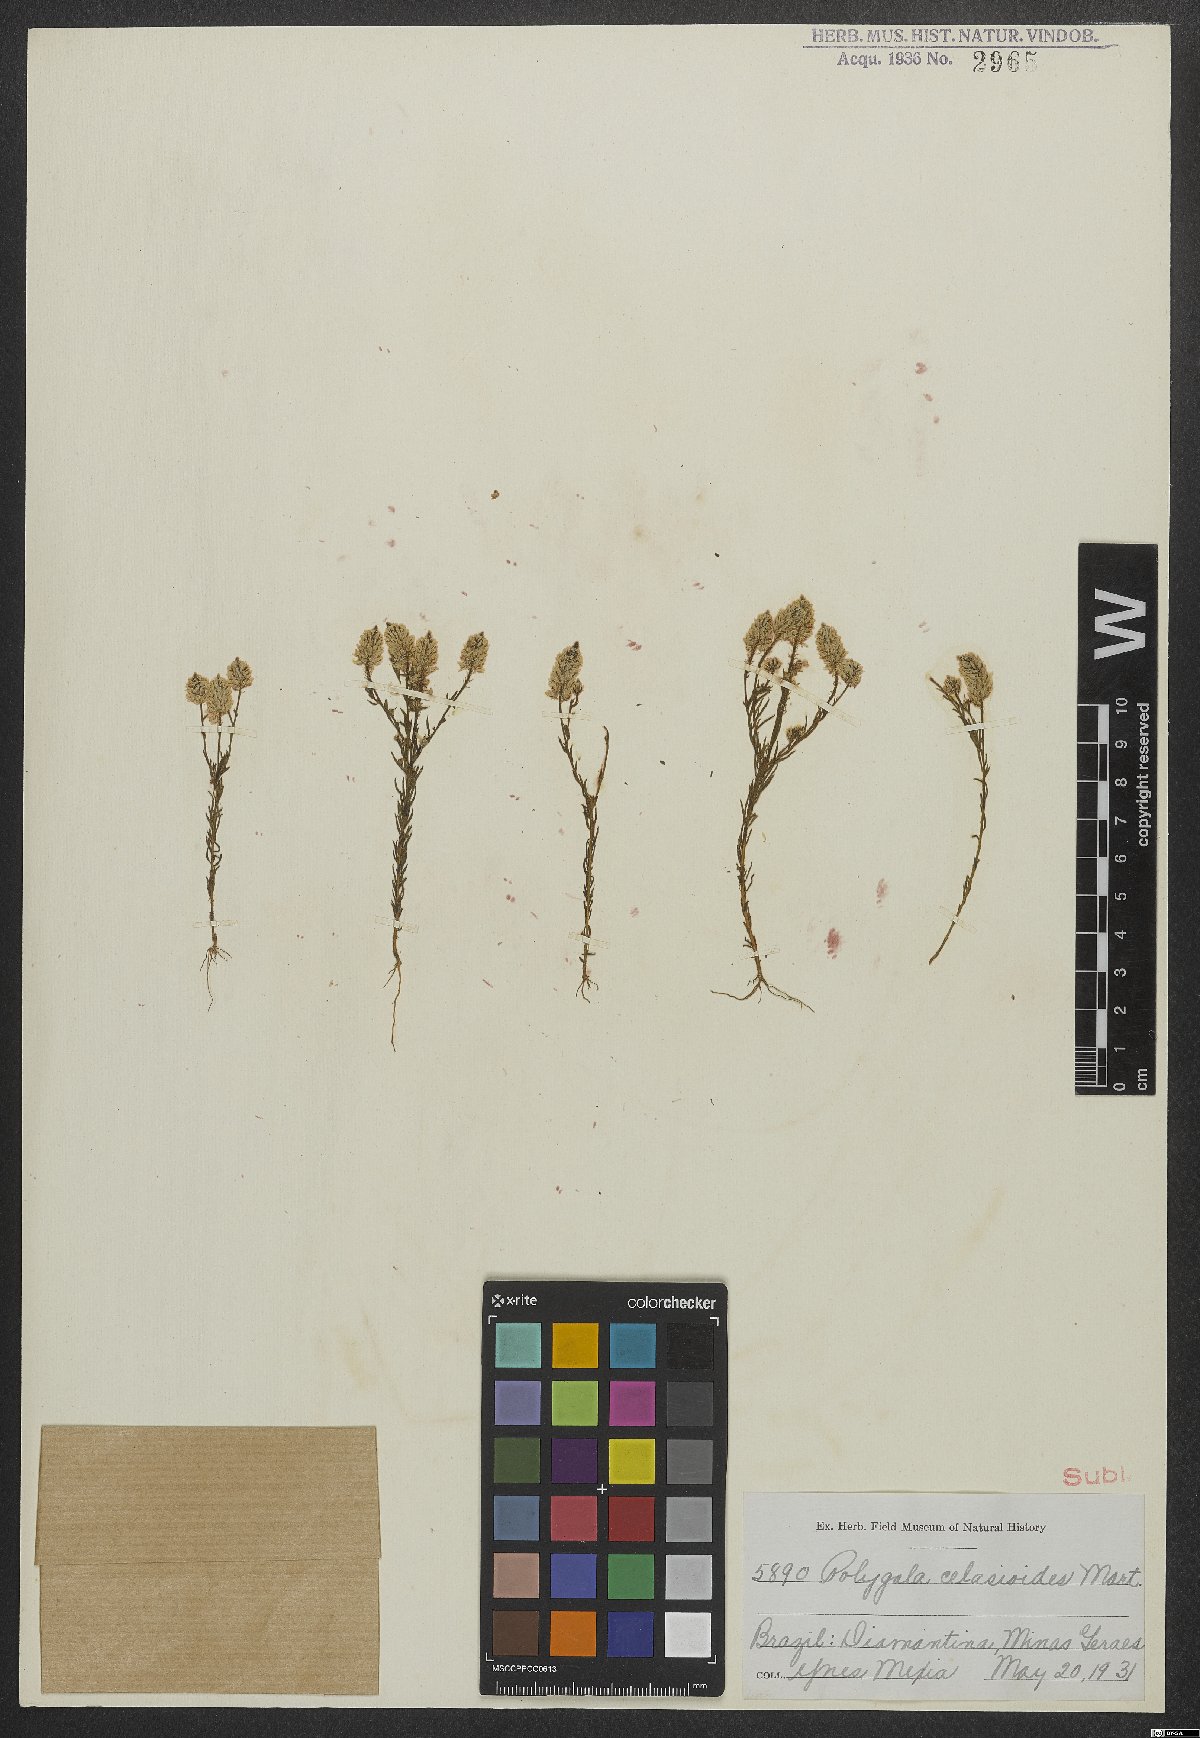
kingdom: Plantae
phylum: Tracheophyta
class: Magnoliopsida
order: Fabales
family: Polygalaceae
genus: Polygala
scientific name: Polygala celosioides
